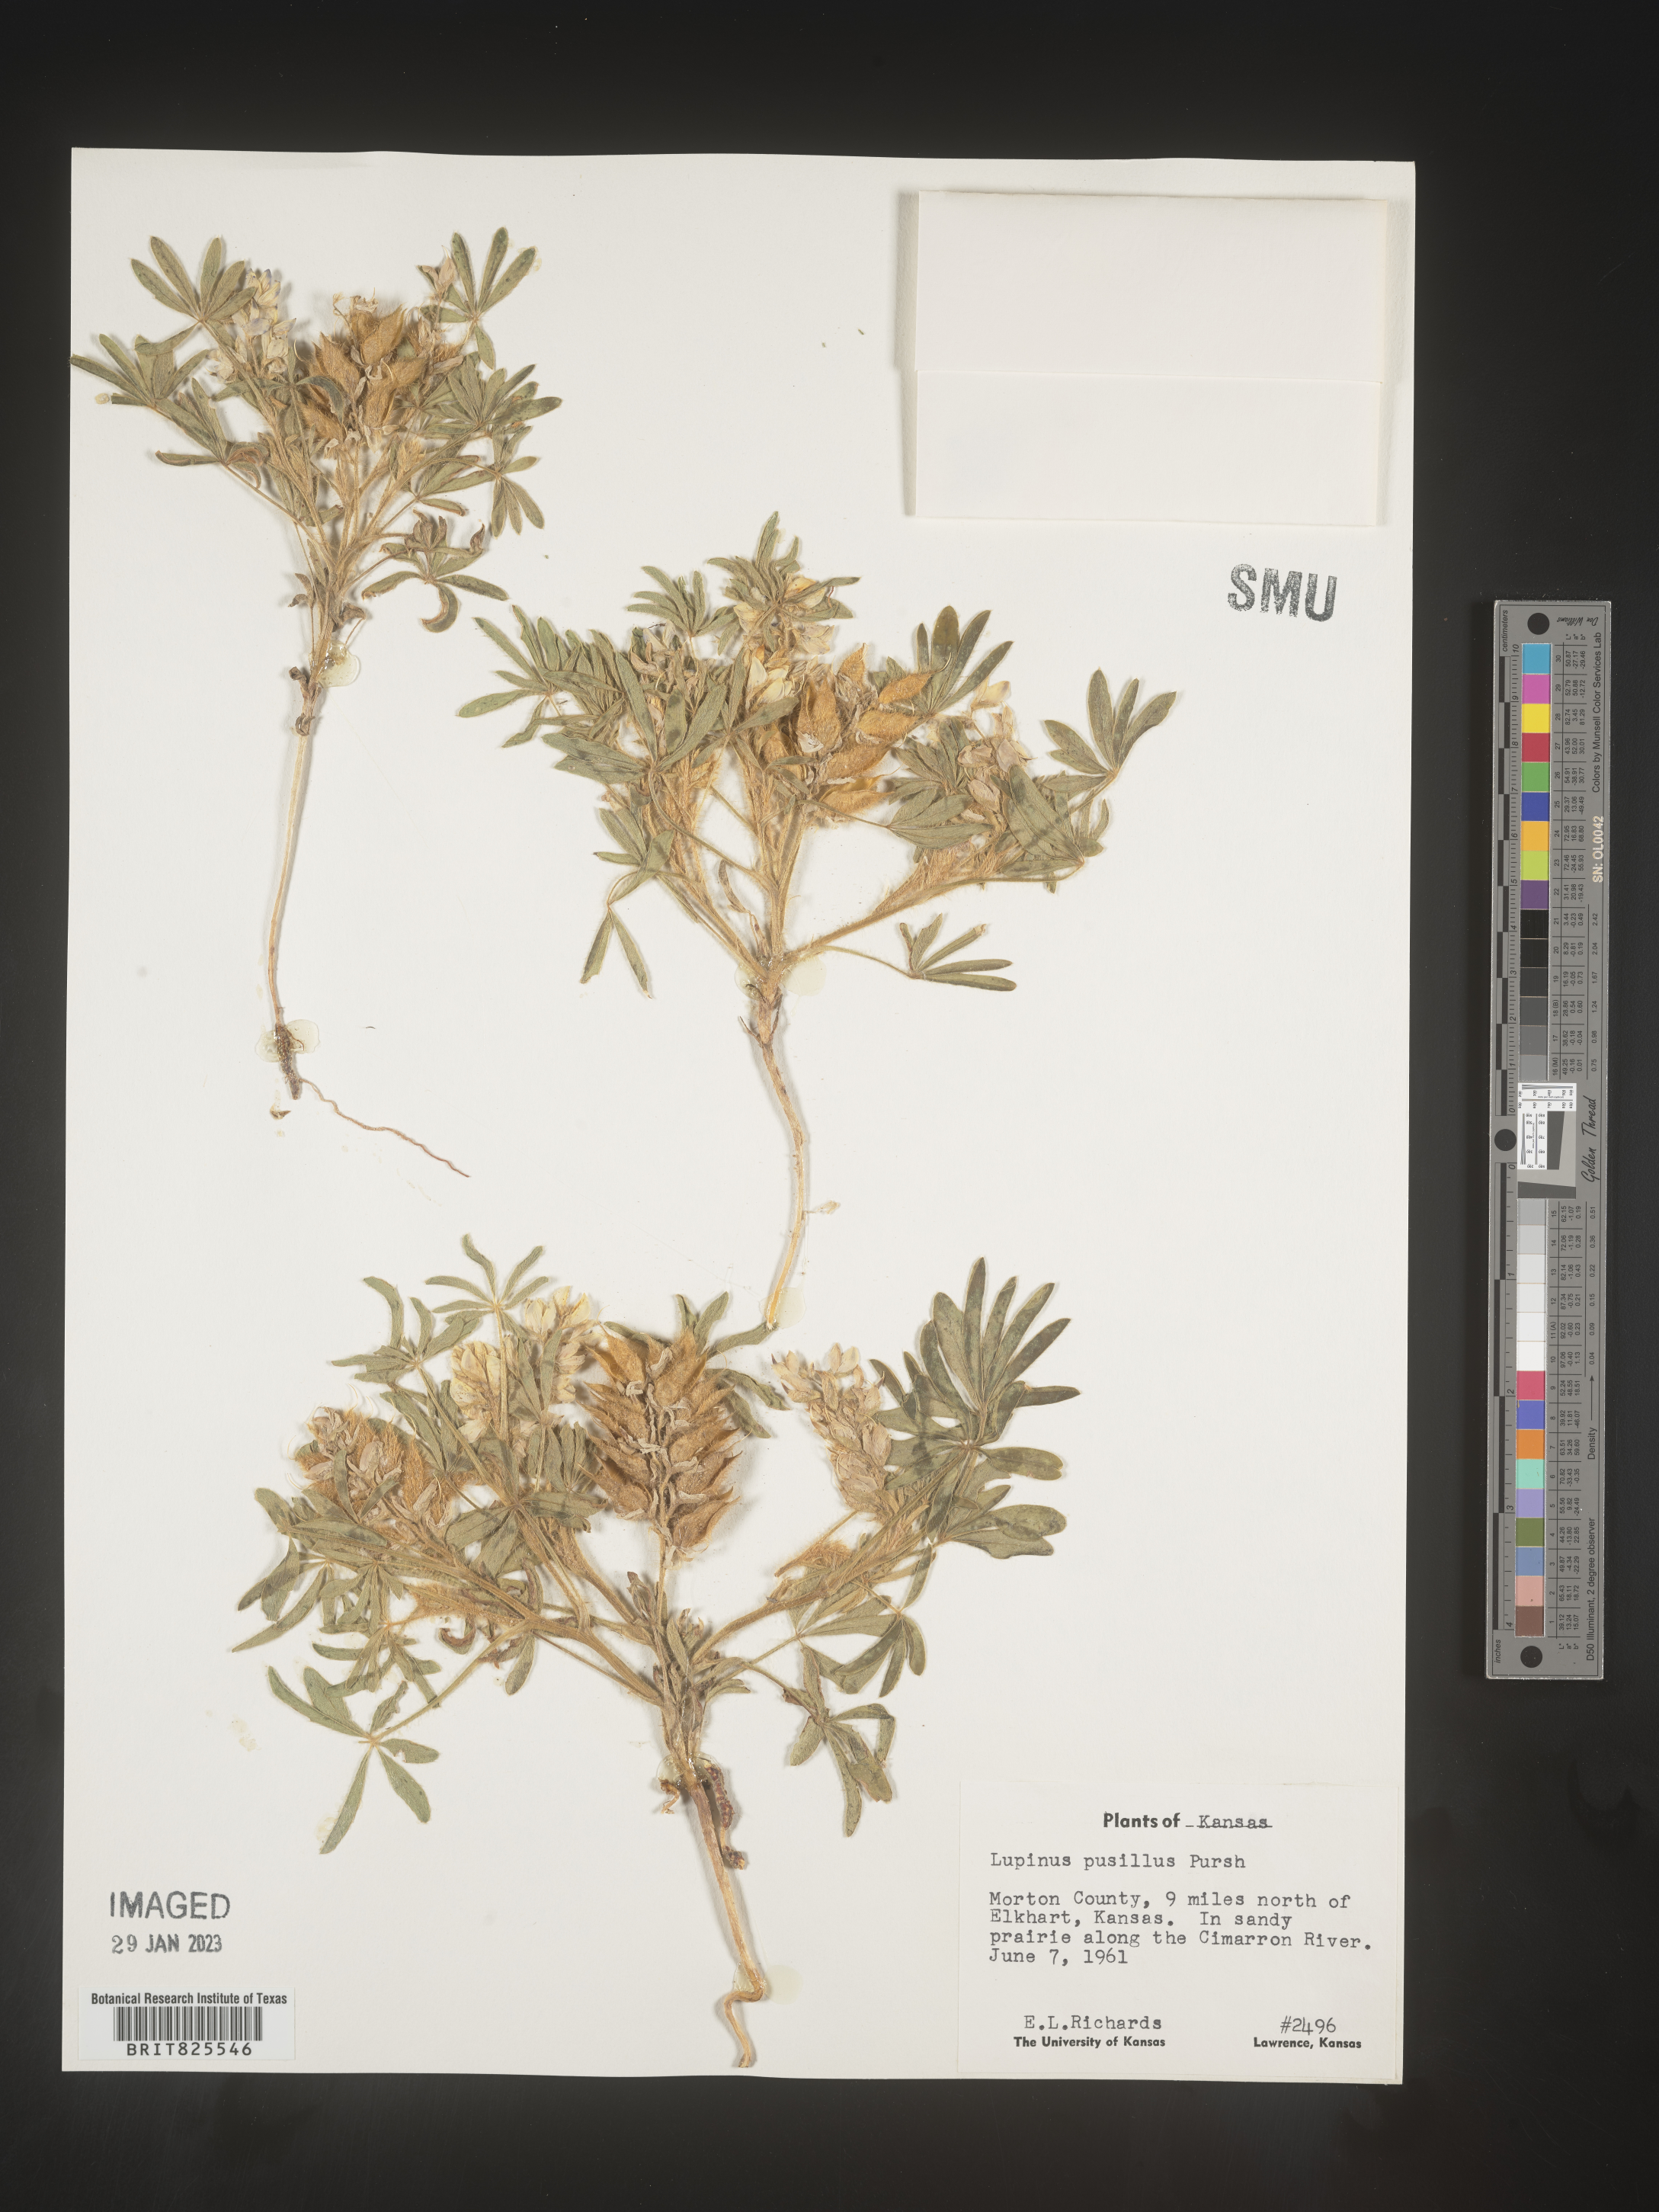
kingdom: Plantae
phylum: Tracheophyta
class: Magnoliopsida
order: Fabales
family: Fabaceae
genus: Lupinus
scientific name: Lupinus
